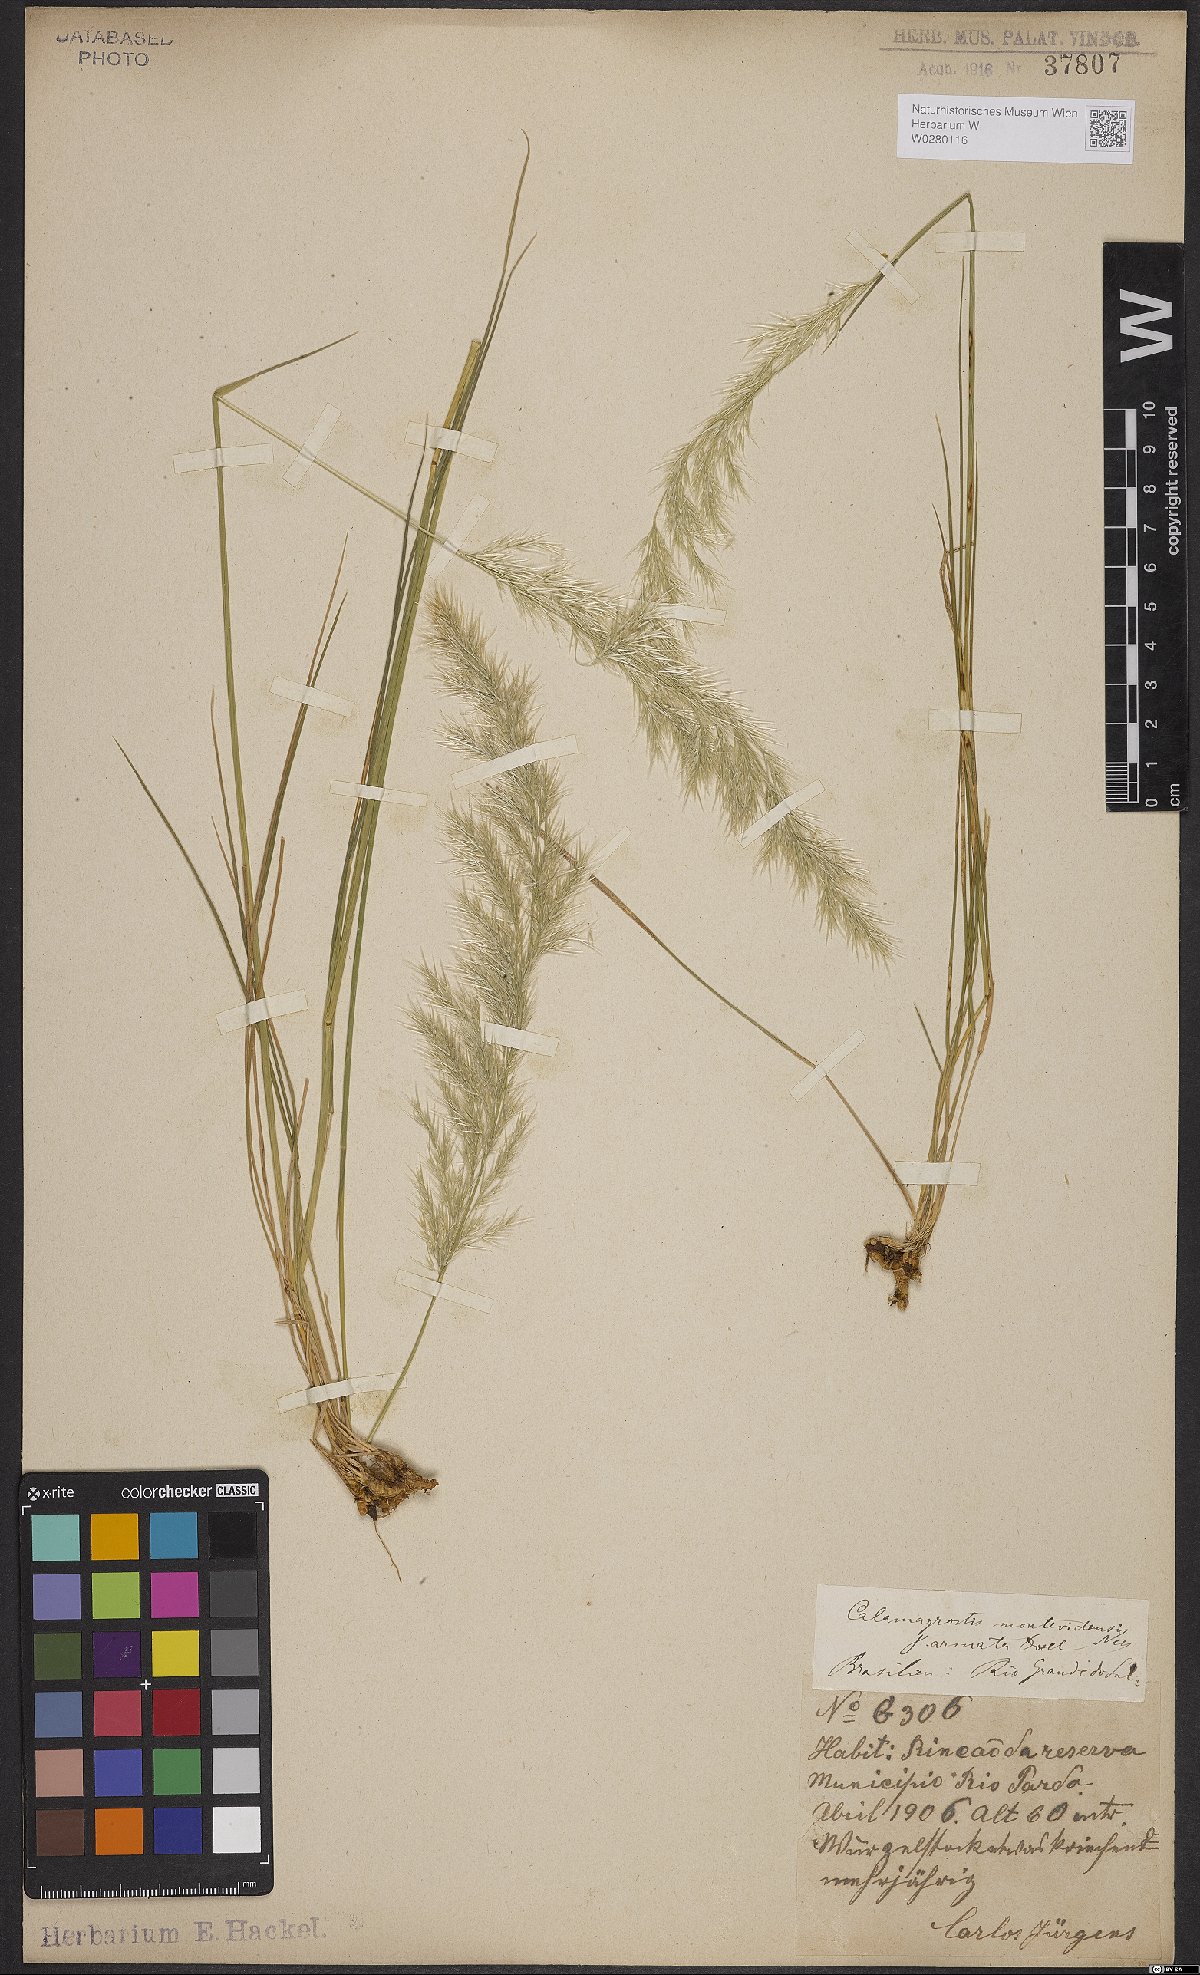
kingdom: Plantae
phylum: Tracheophyta
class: Liliopsida
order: Poales
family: Poaceae
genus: Cinnagrostis
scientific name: Cinnagrostis viridiflavescens
